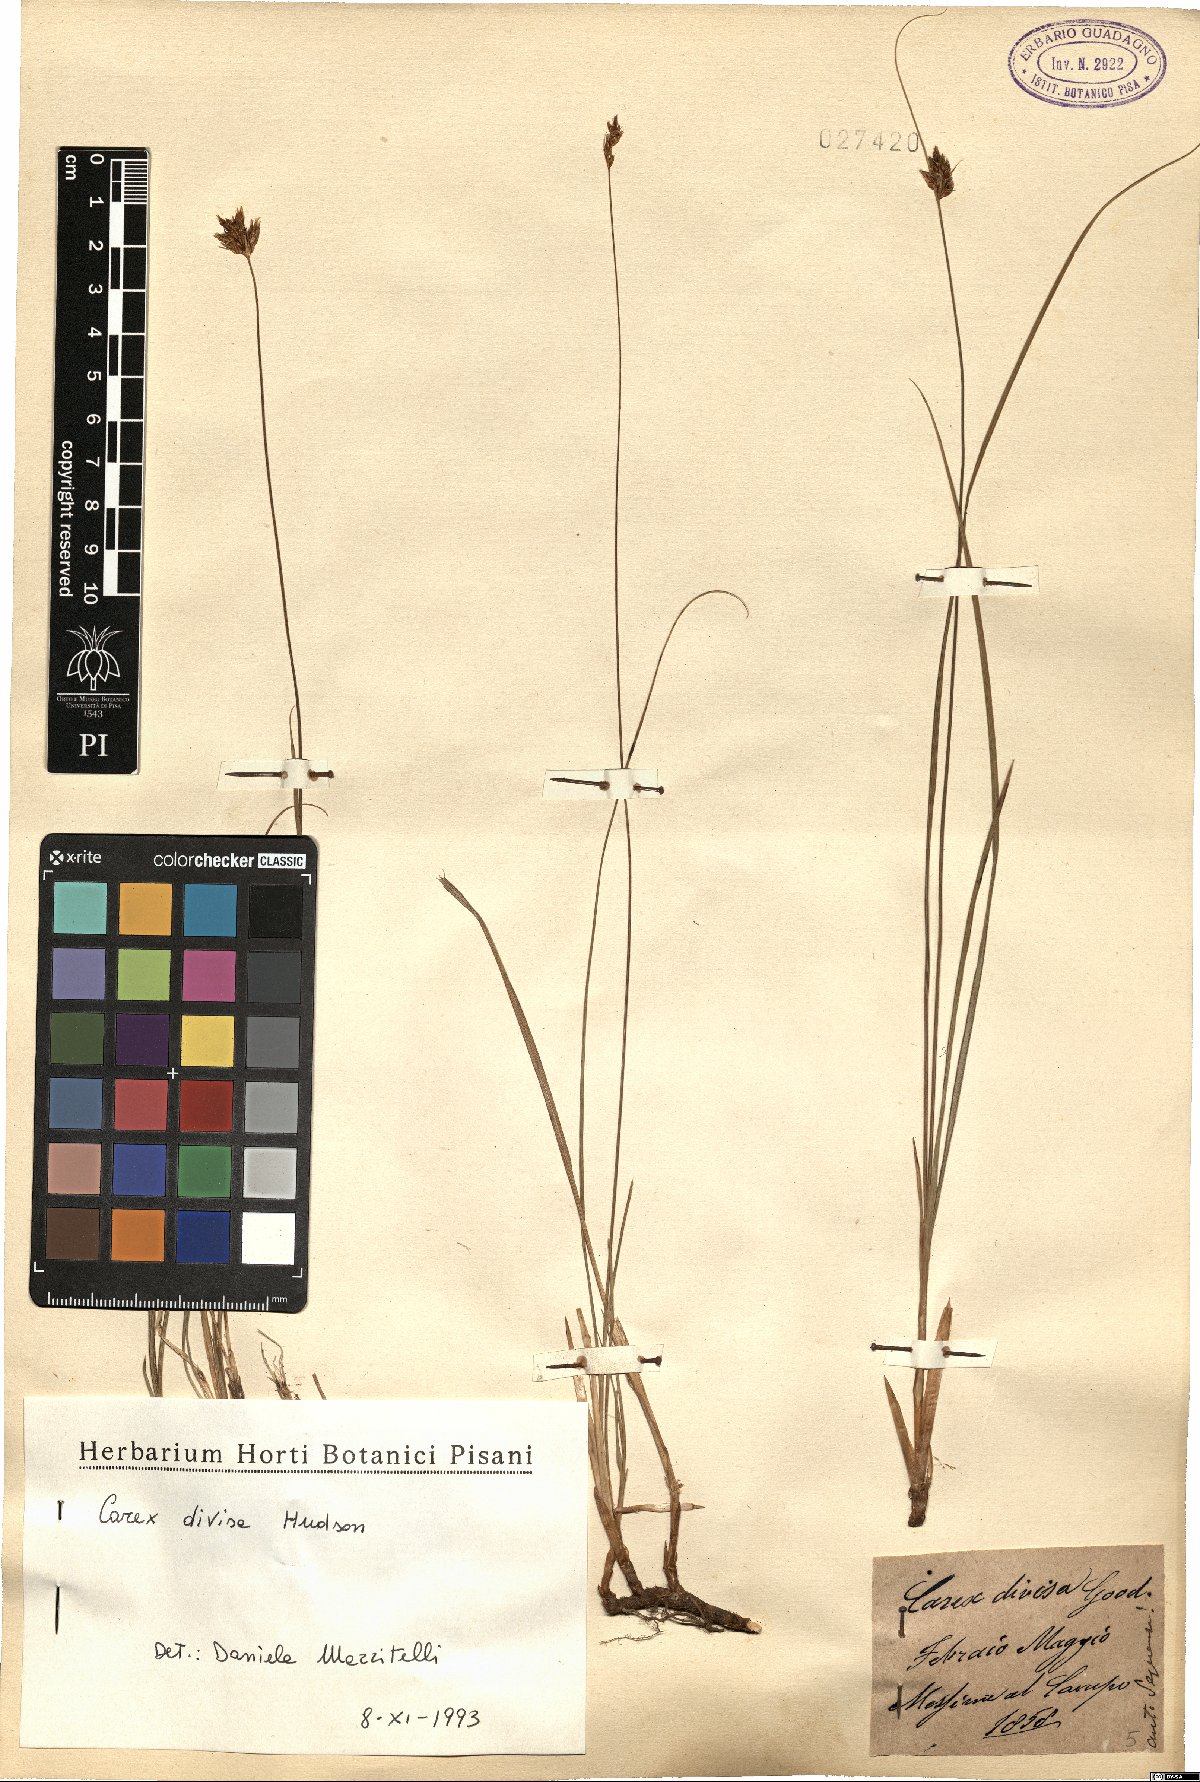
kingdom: Plantae
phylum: Tracheophyta
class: Liliopsida
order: Poales
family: Cyperaceae
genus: Carex
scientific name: Carex divisa
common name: Divided sedge
